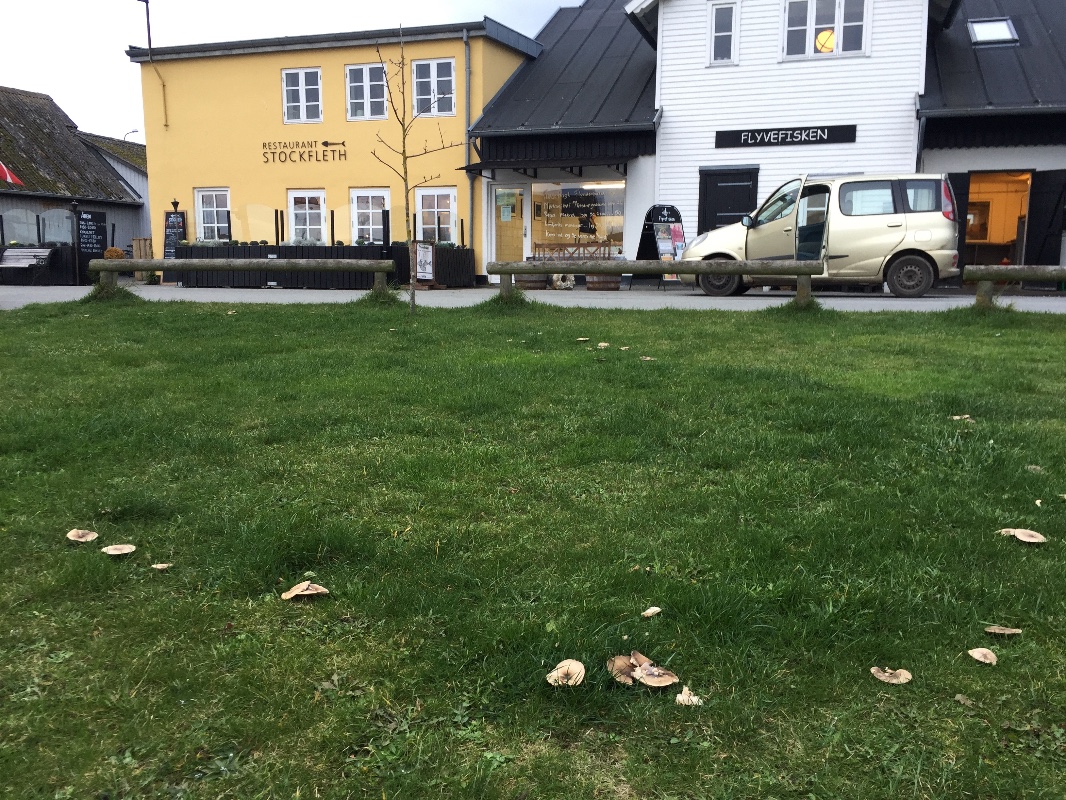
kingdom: Fungi
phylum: Basidiomycota
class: Agaricomycetes
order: Agaricales
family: Tricholomataceae
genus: Melanoleuca
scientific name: Melanoleuca
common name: munkehat
